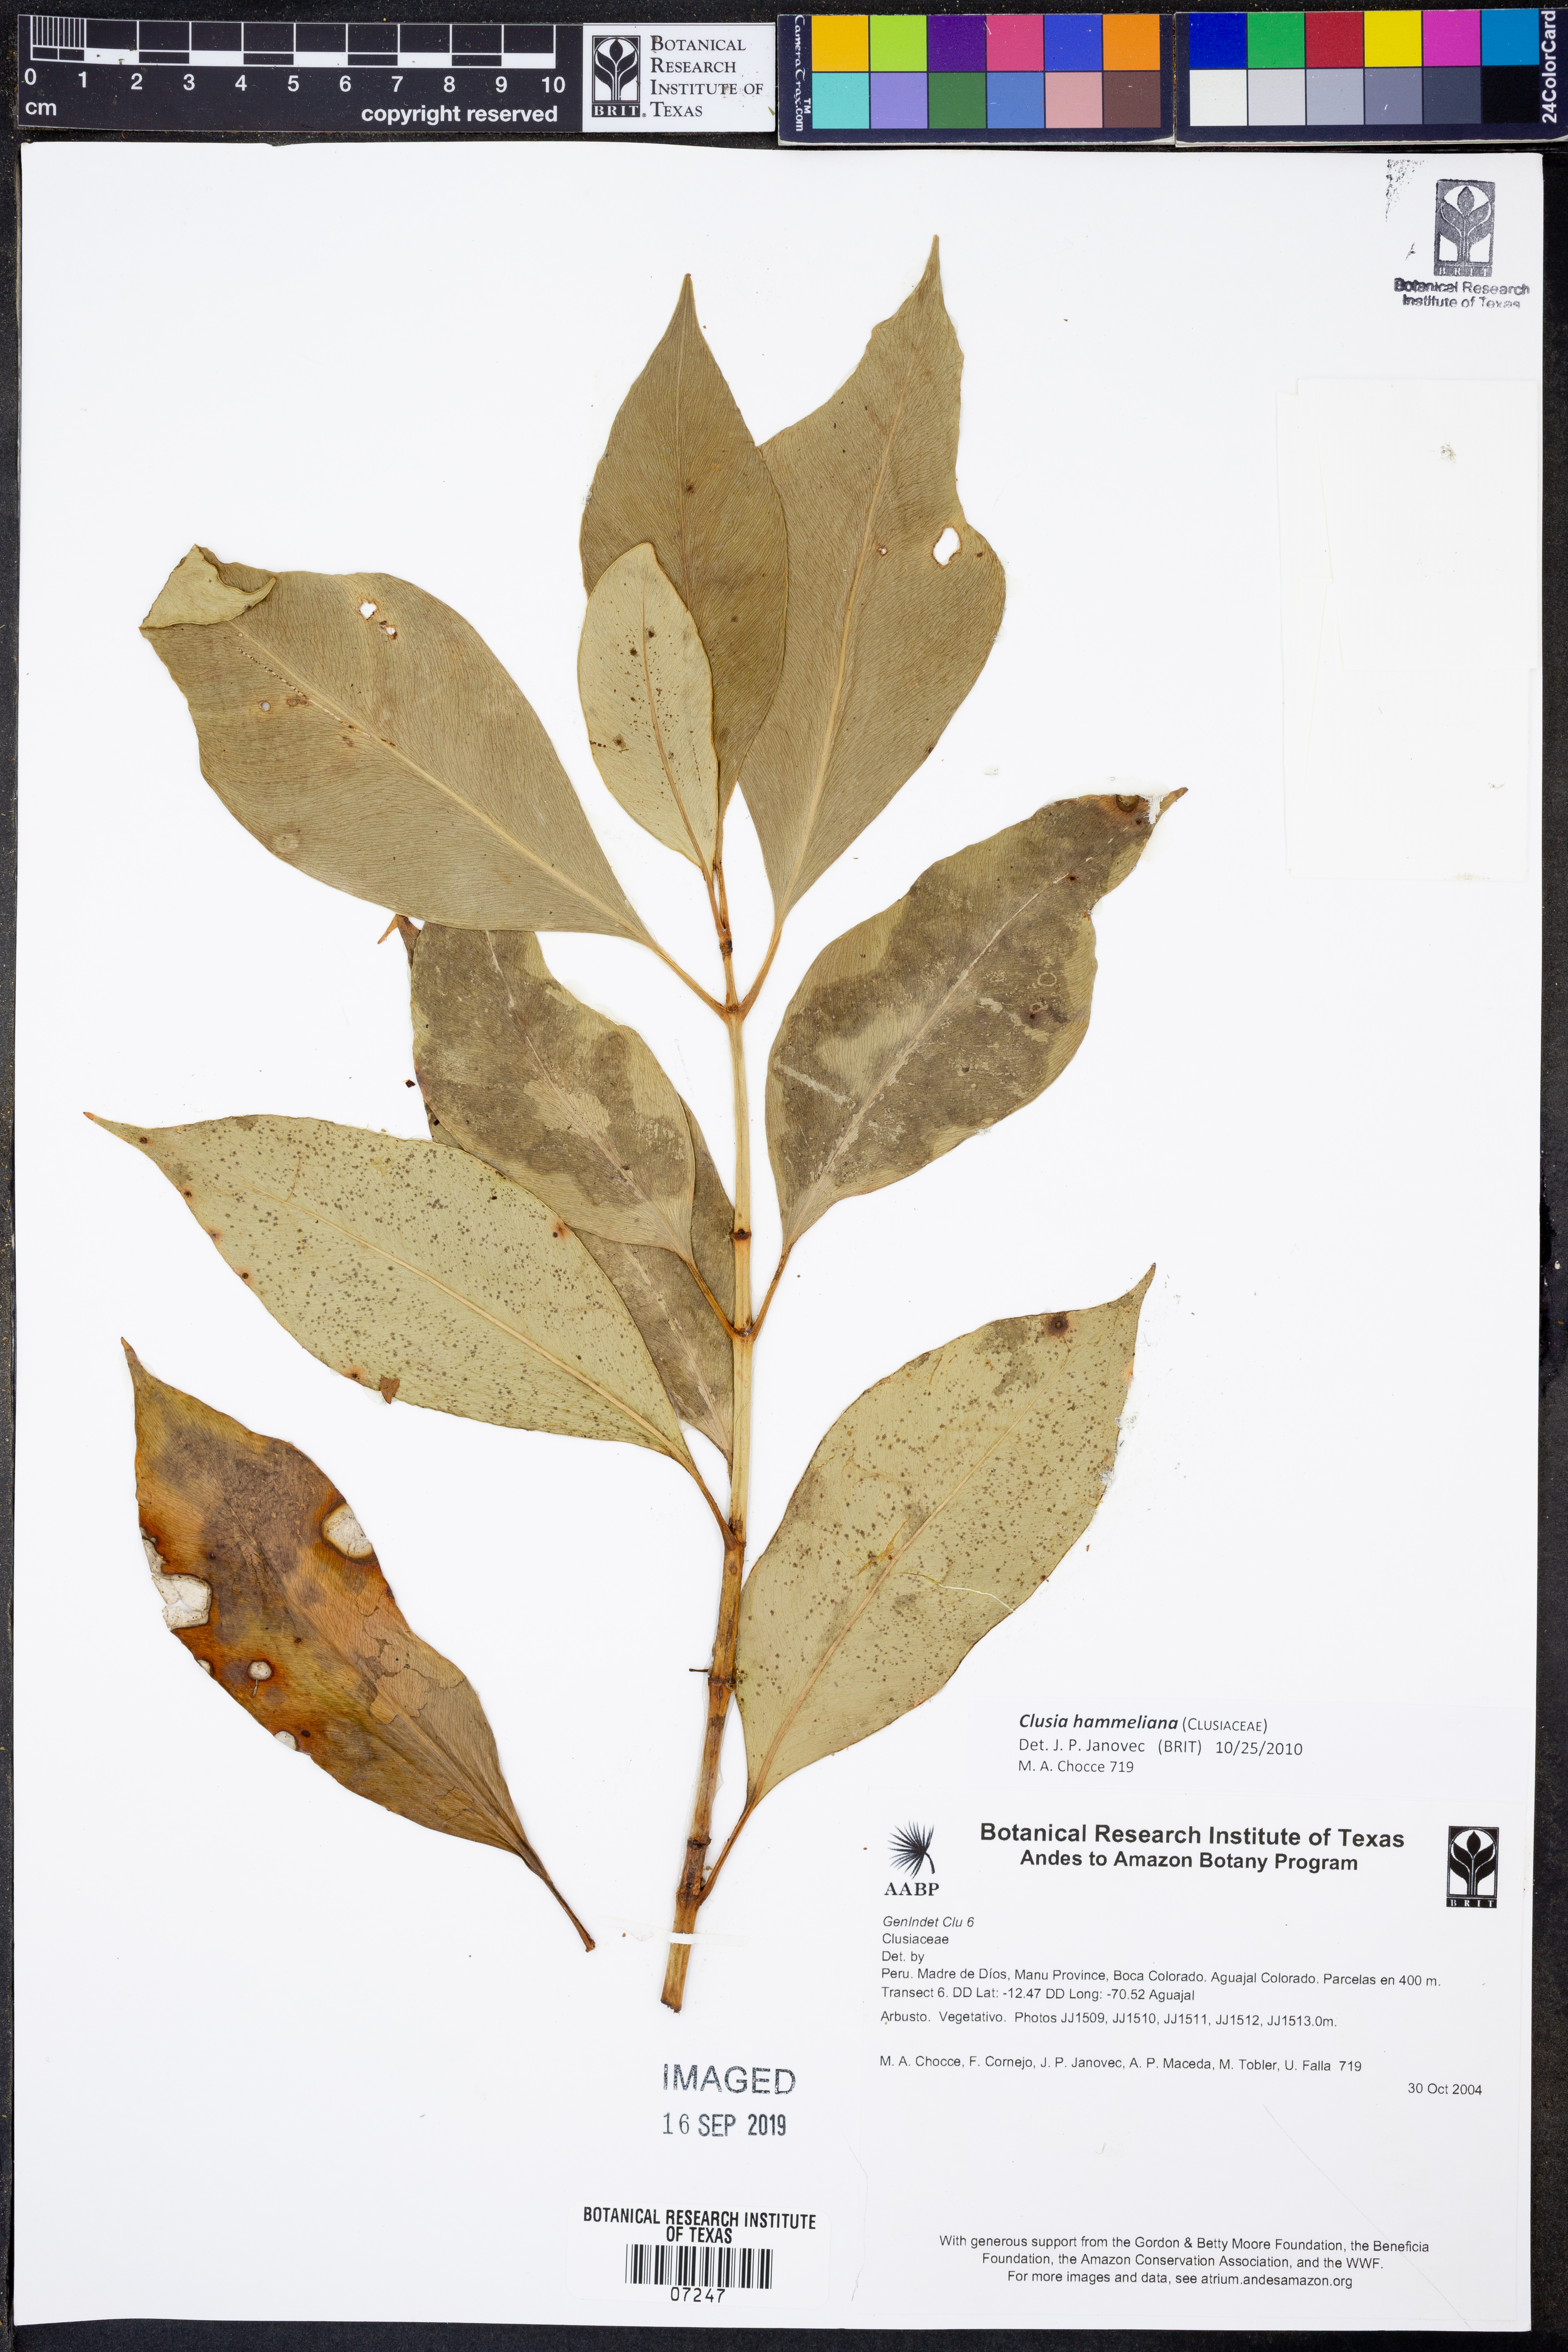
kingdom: Plantae
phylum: Tracheophyta
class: Magnoliopsida
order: Malpighiales
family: Clusiaceae
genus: Clusia
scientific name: Clusia hammeliana
